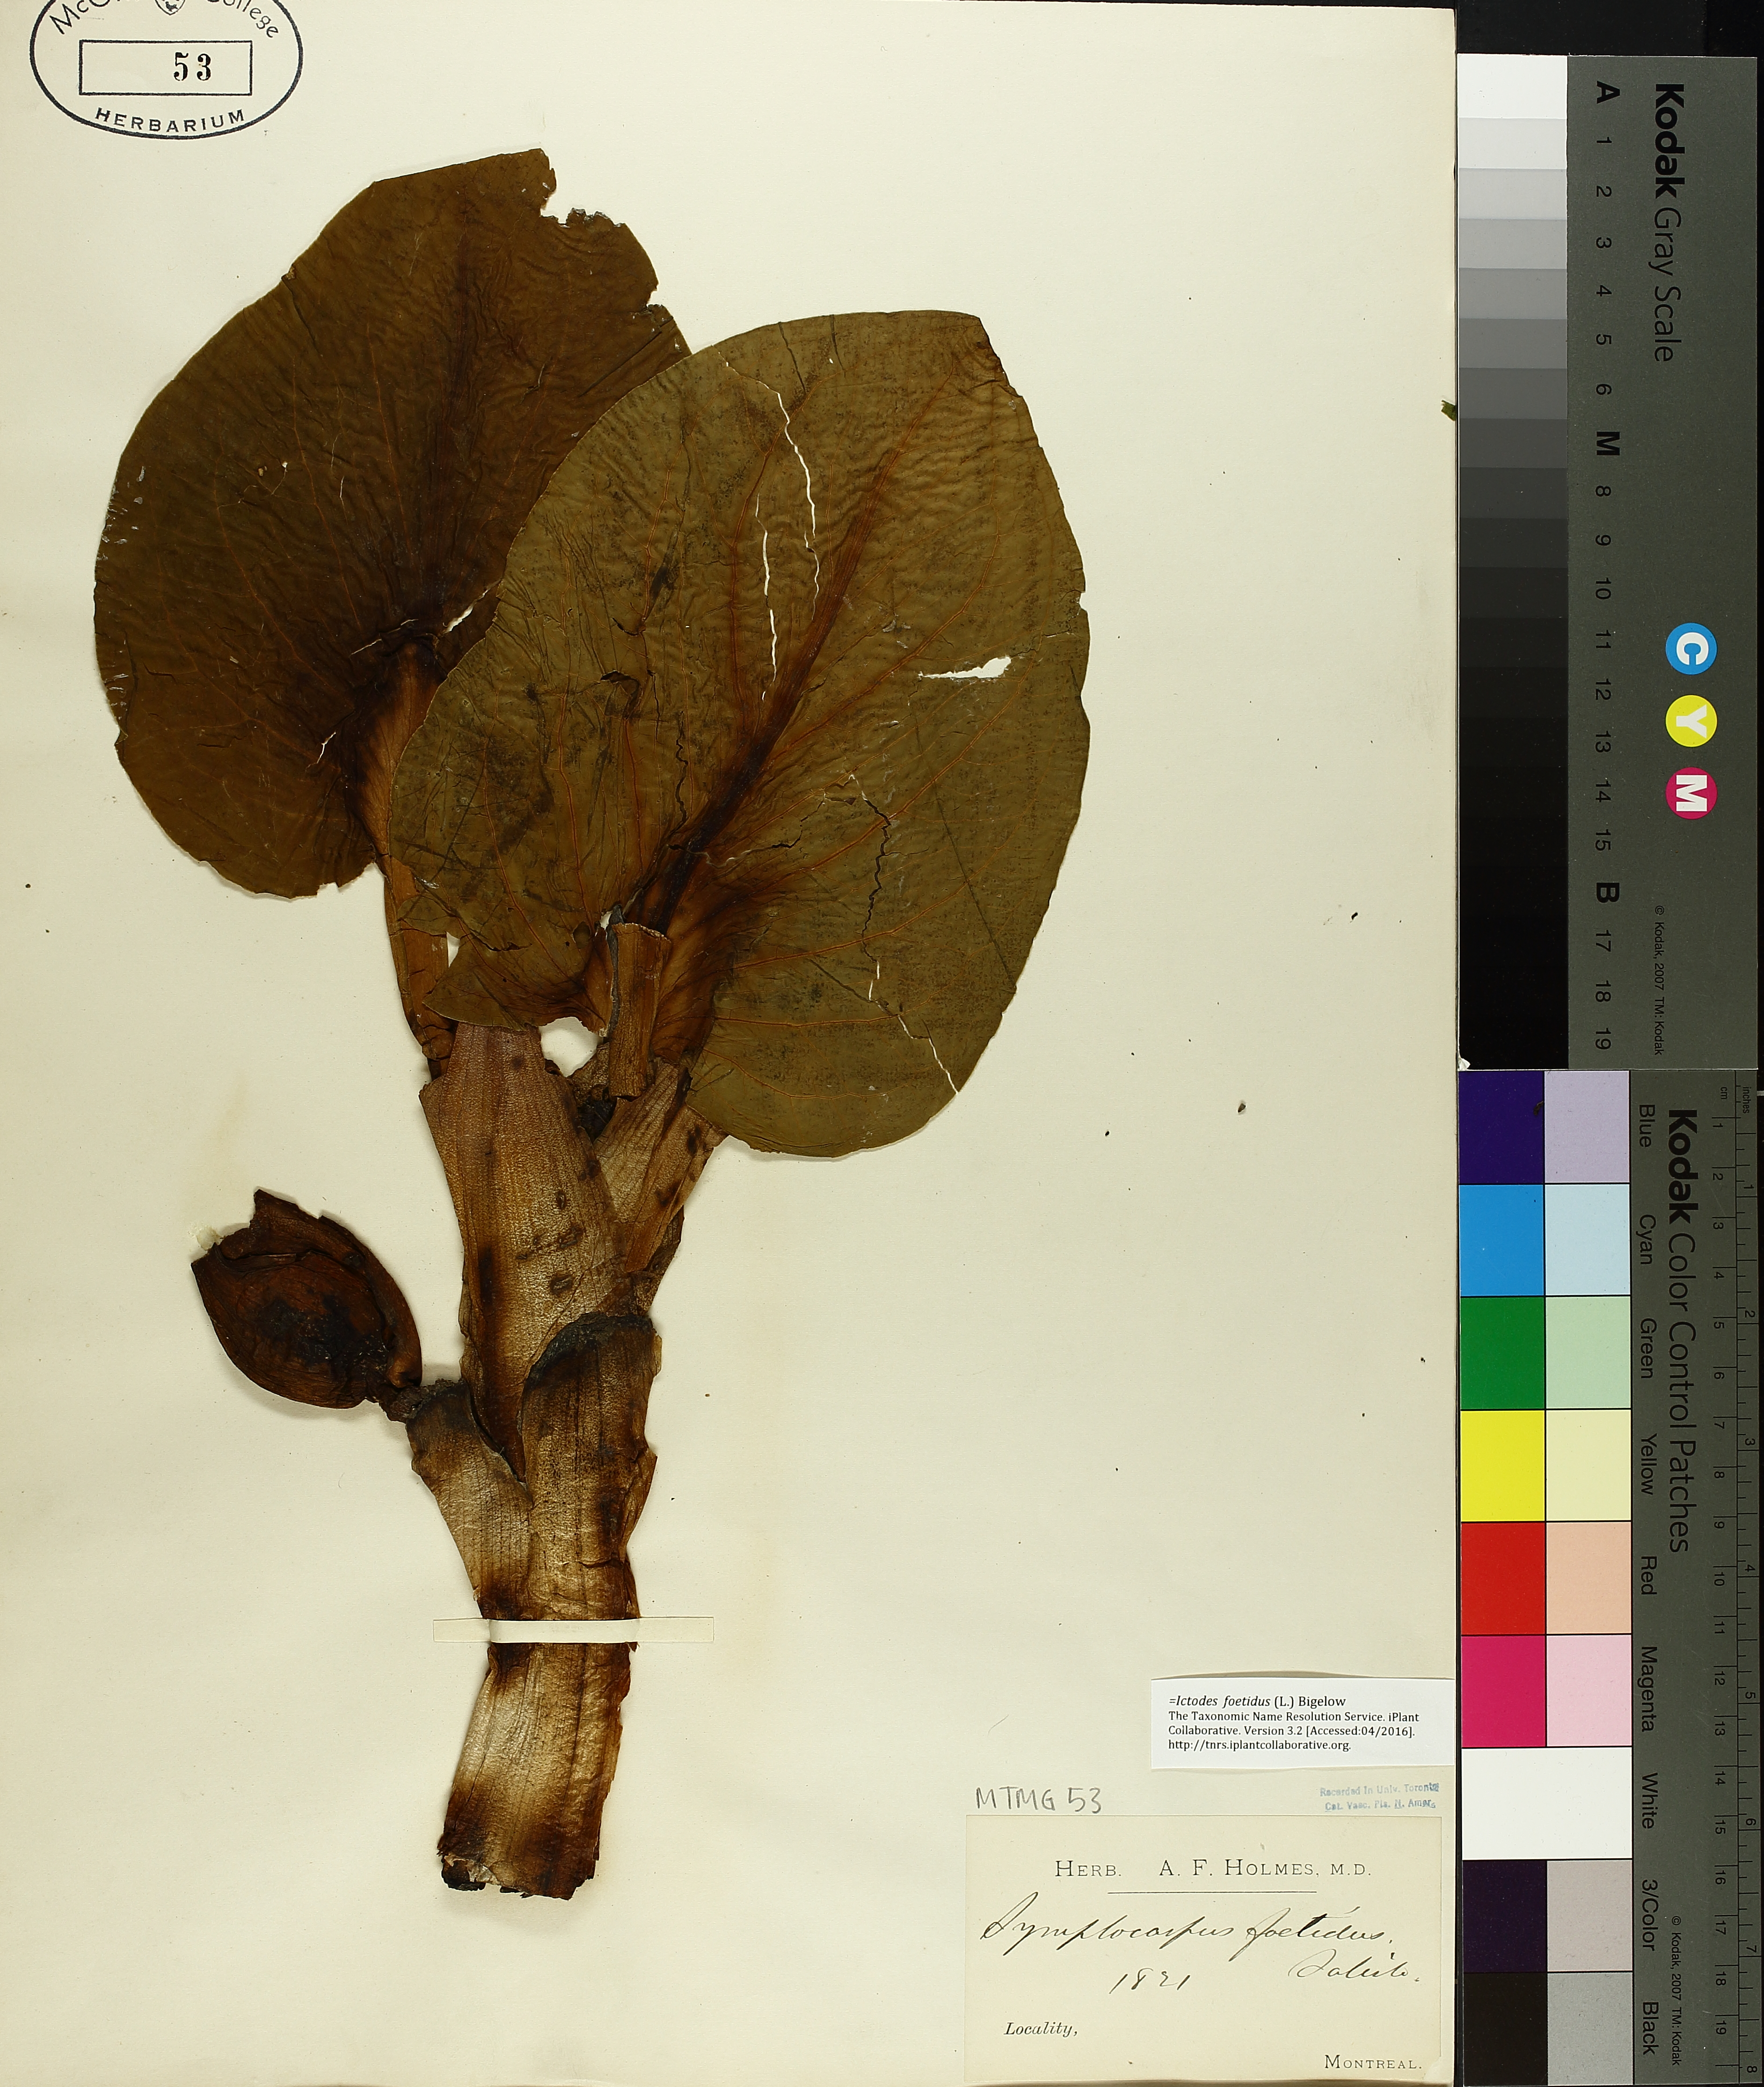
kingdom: Plantae
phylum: Tracheophyta
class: Liliopsida
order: Alismatales
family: Araceae
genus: Symplocarpus
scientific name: Symplocarpus foetidus
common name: Eastern skunk cabbage
